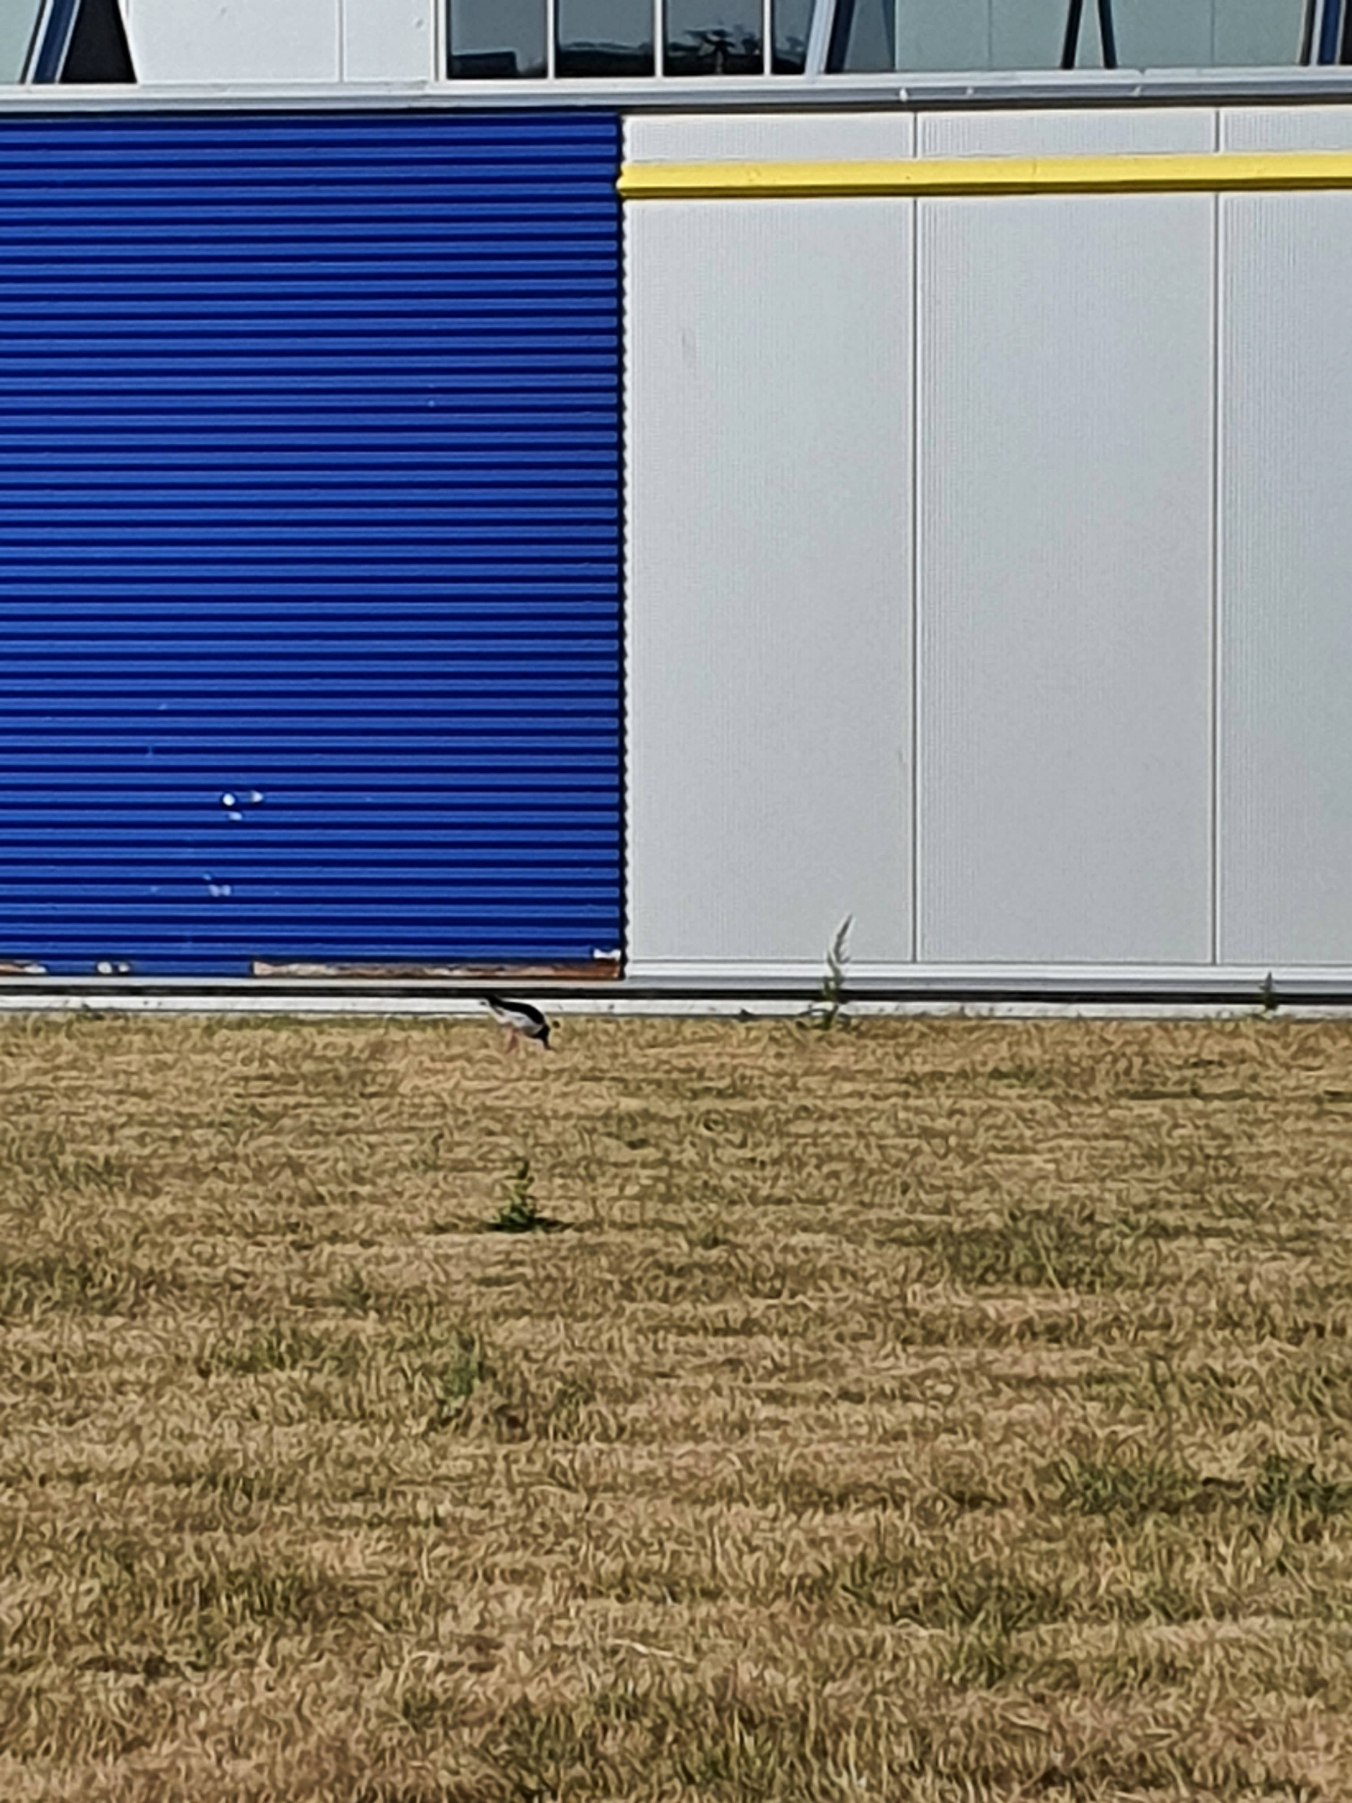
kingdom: Animalia
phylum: Chordata
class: Aves
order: Charadriiformes
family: Haematopodidae
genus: Haematopus
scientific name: Haematopus ostralegus
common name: Strandskade
